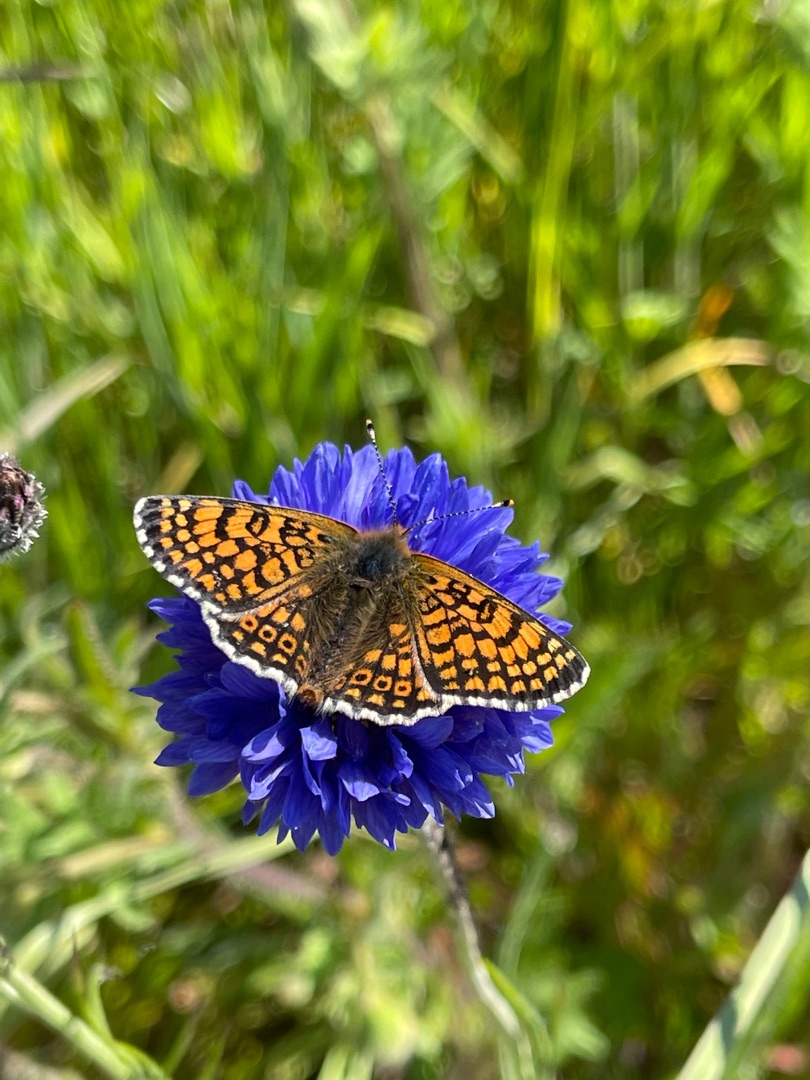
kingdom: Animalia
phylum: Arthropoda
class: Insecta
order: Lepidoptera
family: Nymphalidae
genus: Melitaea
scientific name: Melitaea cinxia
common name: Okkergul pletvinge
